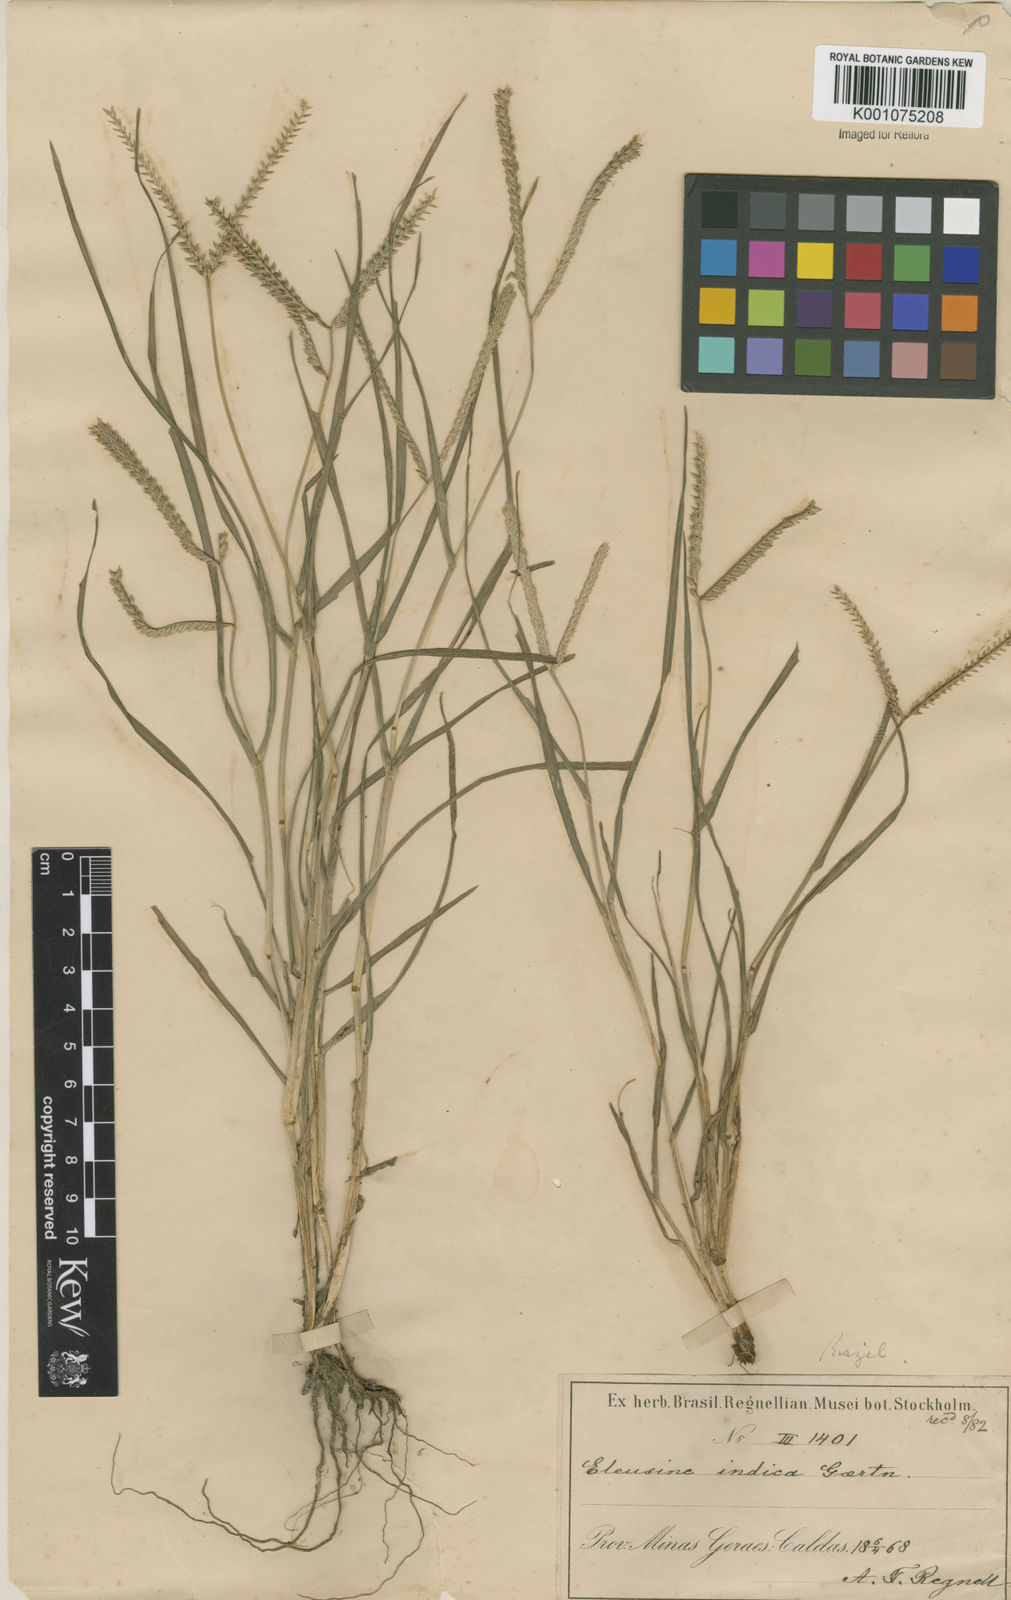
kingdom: Plantae
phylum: Tracheophyta
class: Liliopsida
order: Poales
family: Poaceae
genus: Eleusine
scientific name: Eleusine indica
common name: Yard-grass
